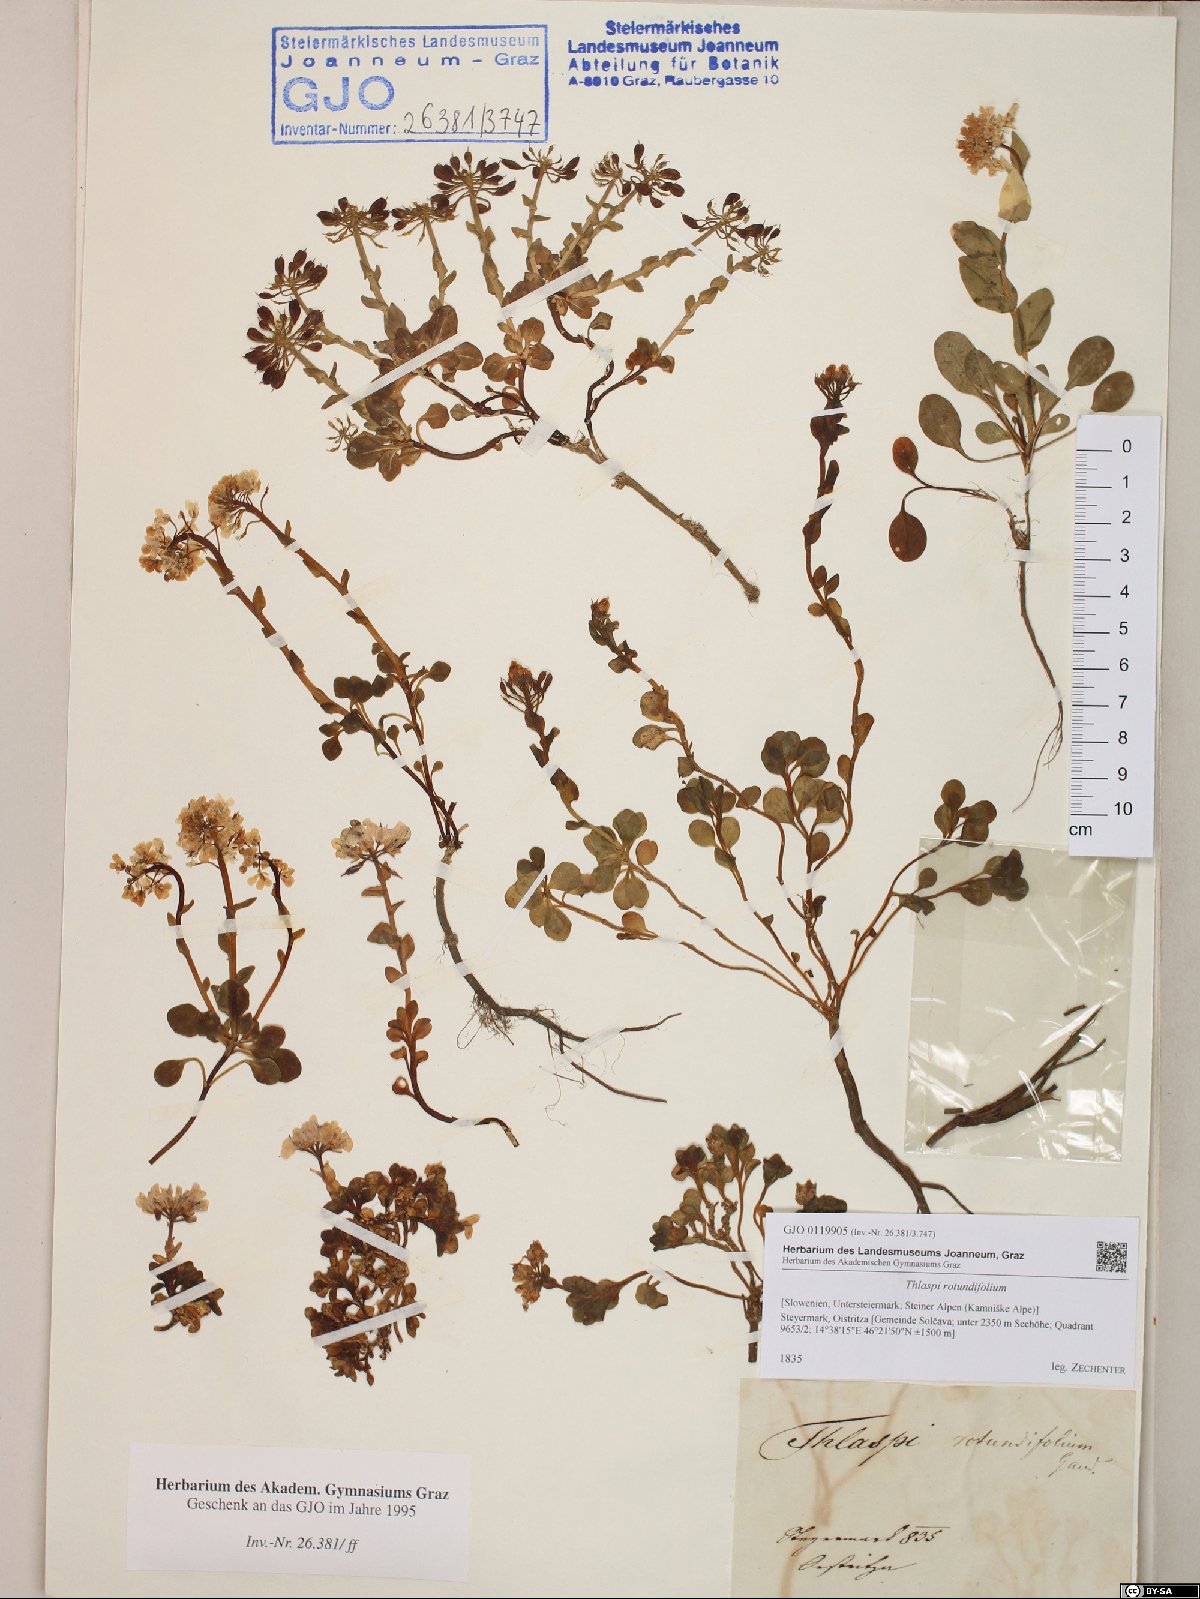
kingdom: Plantae
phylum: Tracheophyta
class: Magnoliopsida
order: Brassicales
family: Brassicaceae
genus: Noccaea
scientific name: Noccaea rotundifolia
